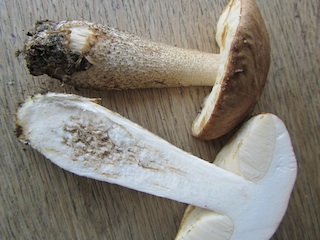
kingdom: Fungi
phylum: Basidiomycota
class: Agaricomycetes
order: Boletales
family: Boletaceae
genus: Leccinum
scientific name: Leccinum scabrum
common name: brun skælrørhat
